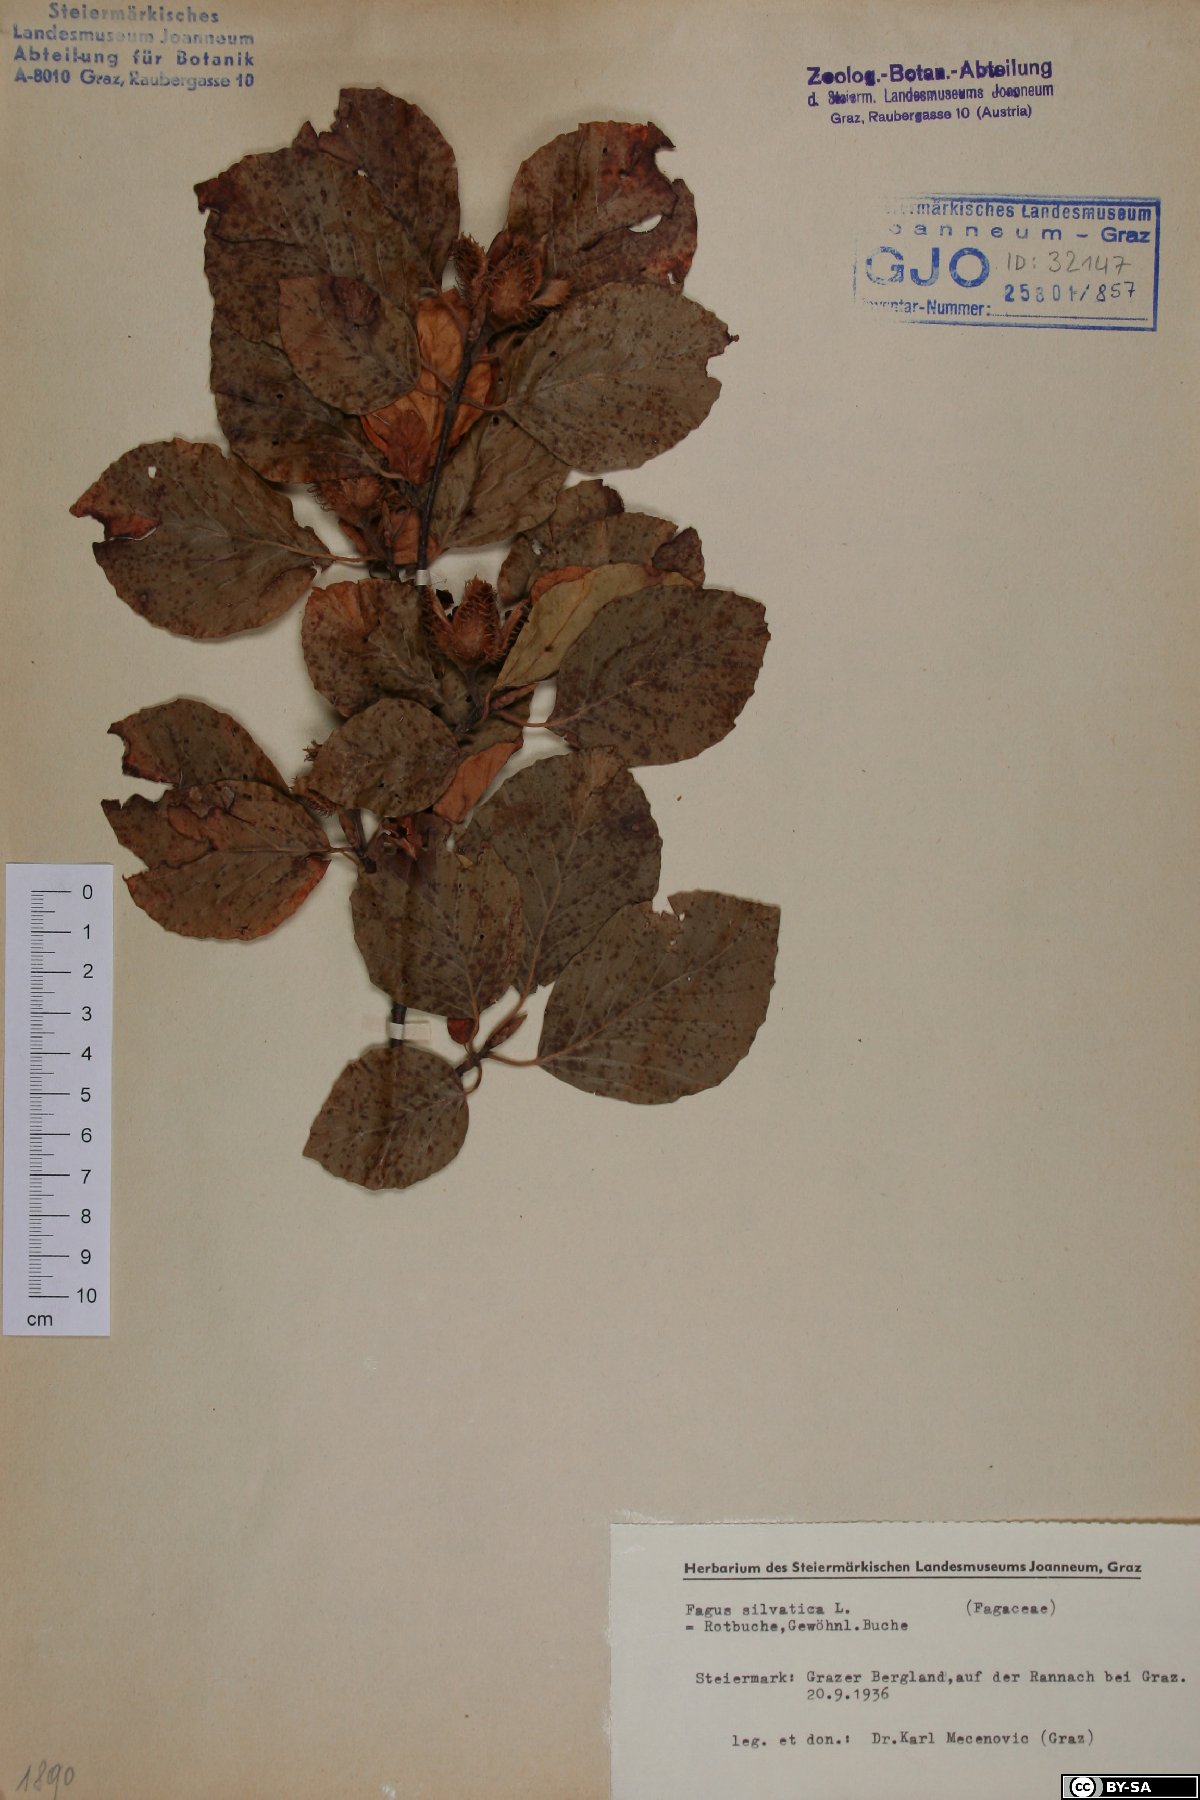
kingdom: Plantae
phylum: Tracheophyta
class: Magnoliopsida
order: Fagales
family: Fagaceae
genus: Fagus
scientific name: Fagus sylvatica
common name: Beech
